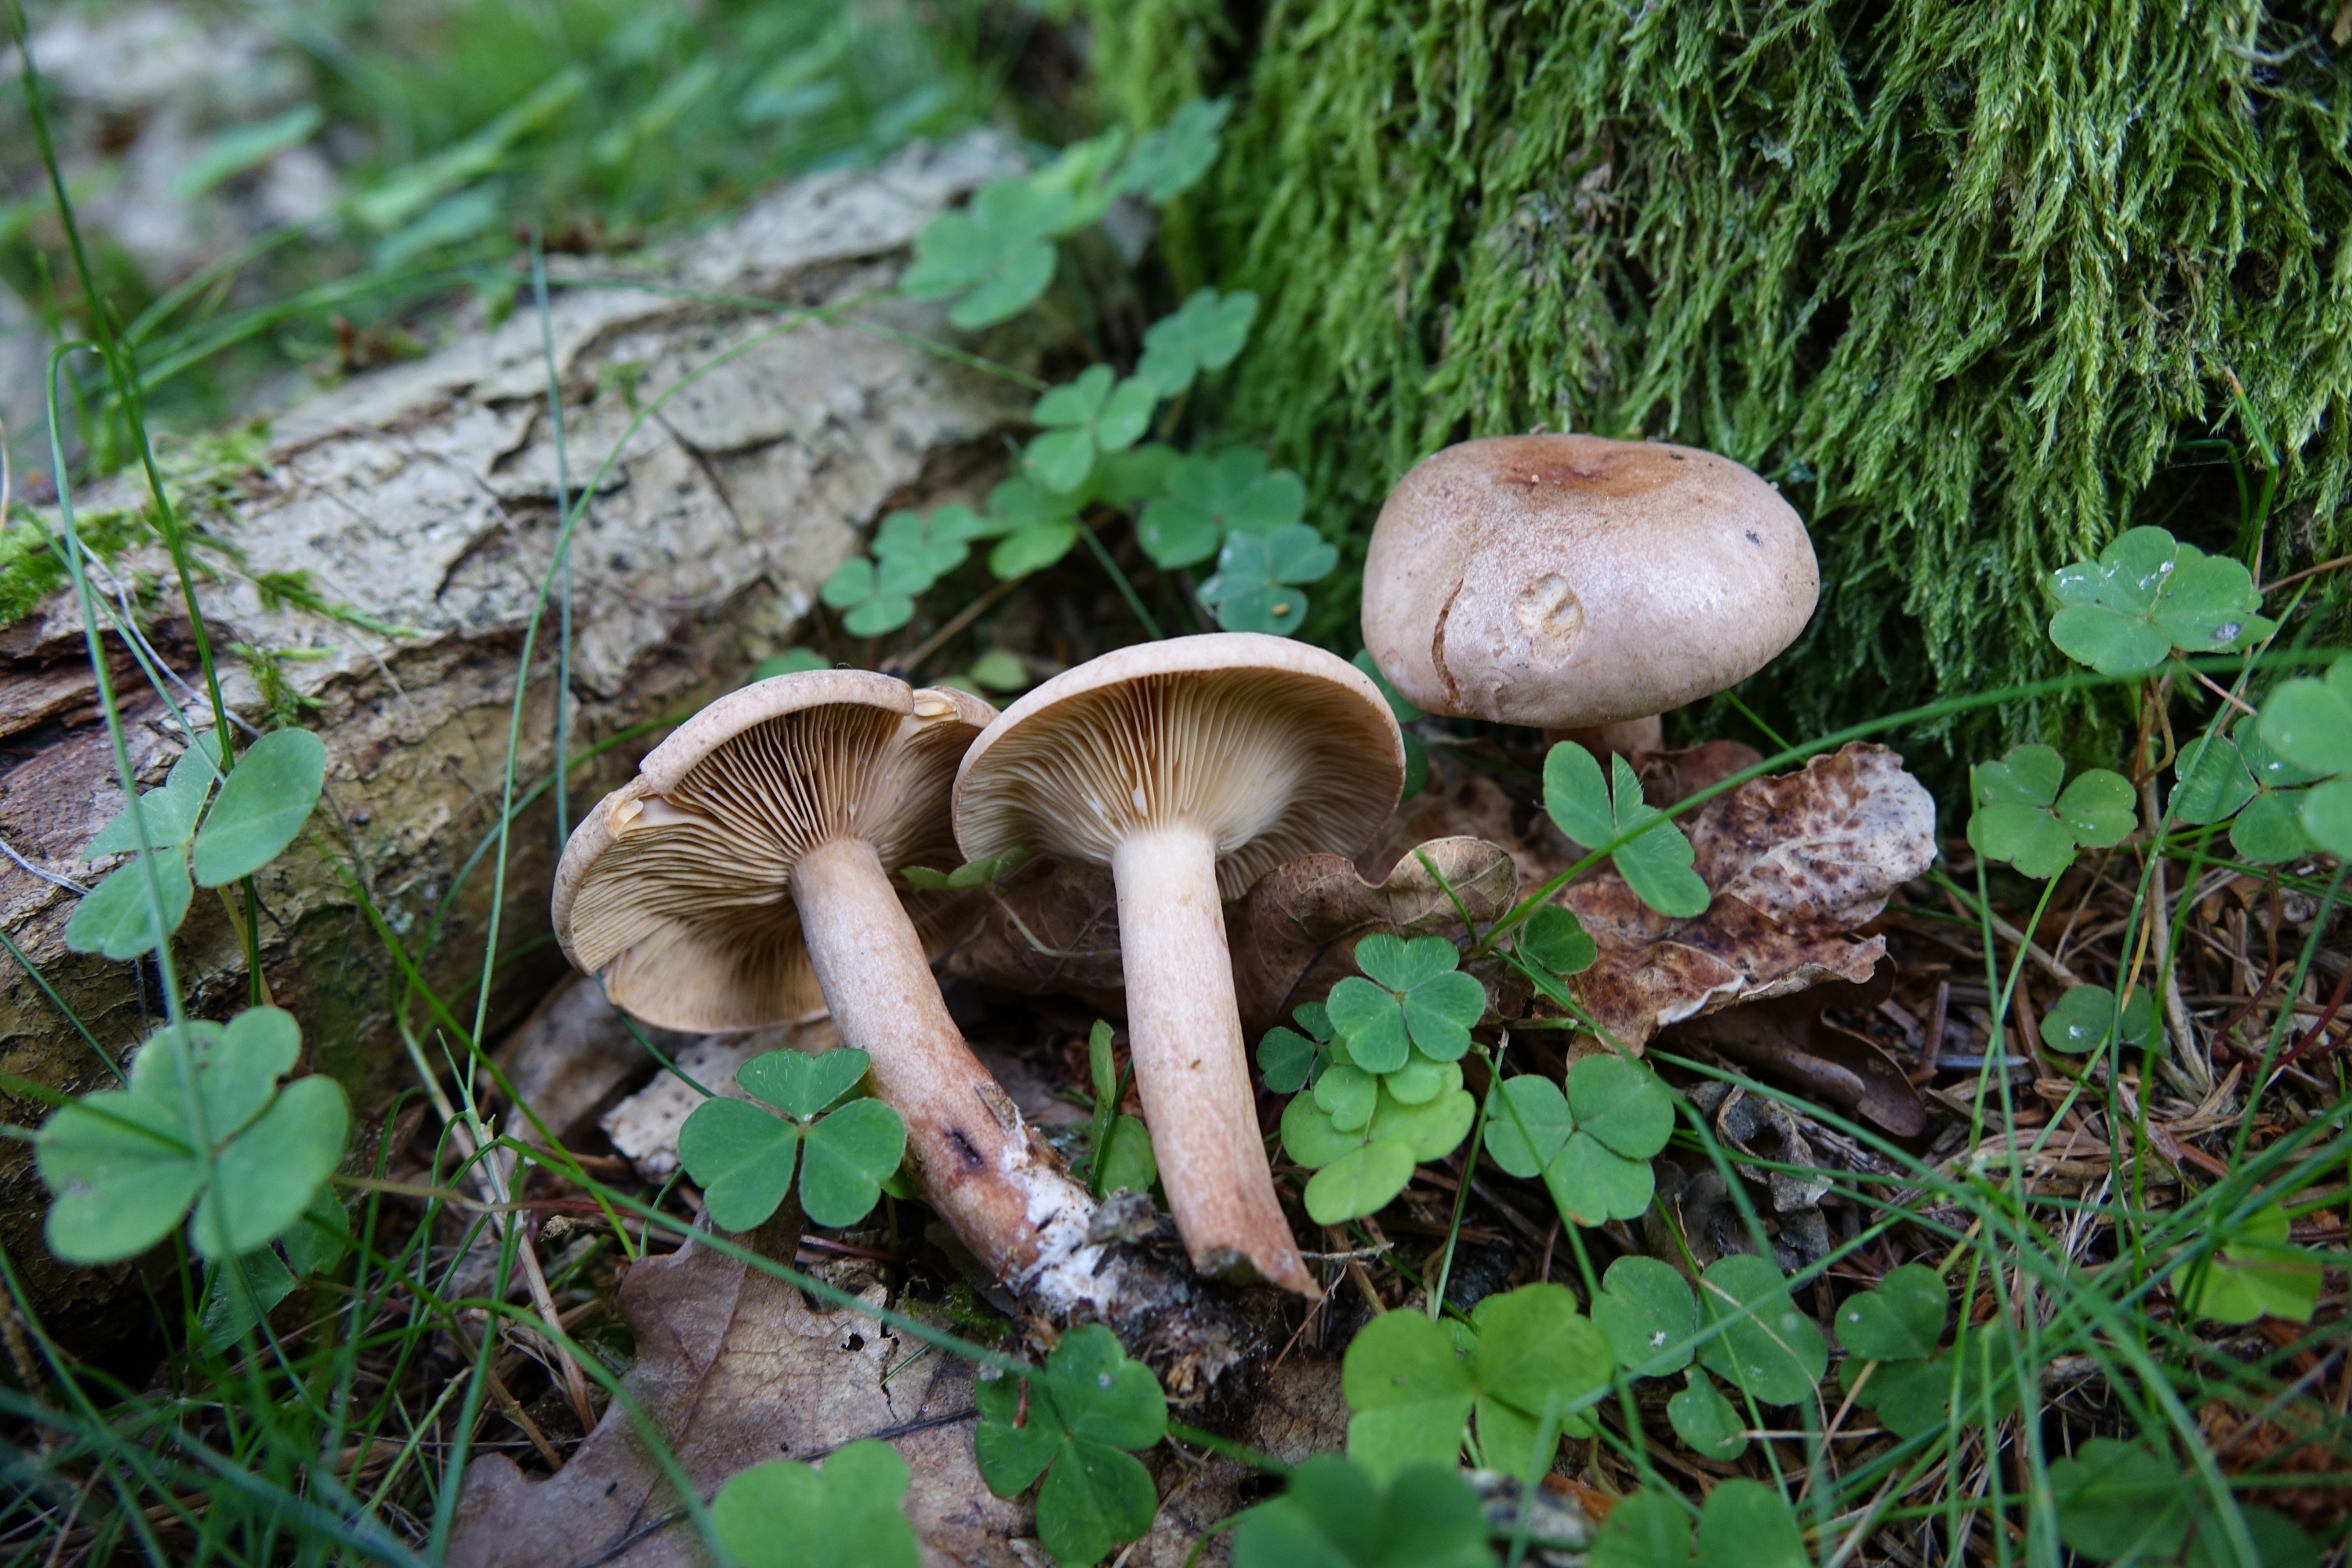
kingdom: Fungi
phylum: Basidiomycota
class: Agaricomycetes
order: Russulales
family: Russulaceae
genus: Lactarius
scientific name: Lactarius quietus
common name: Oak milk-cap
